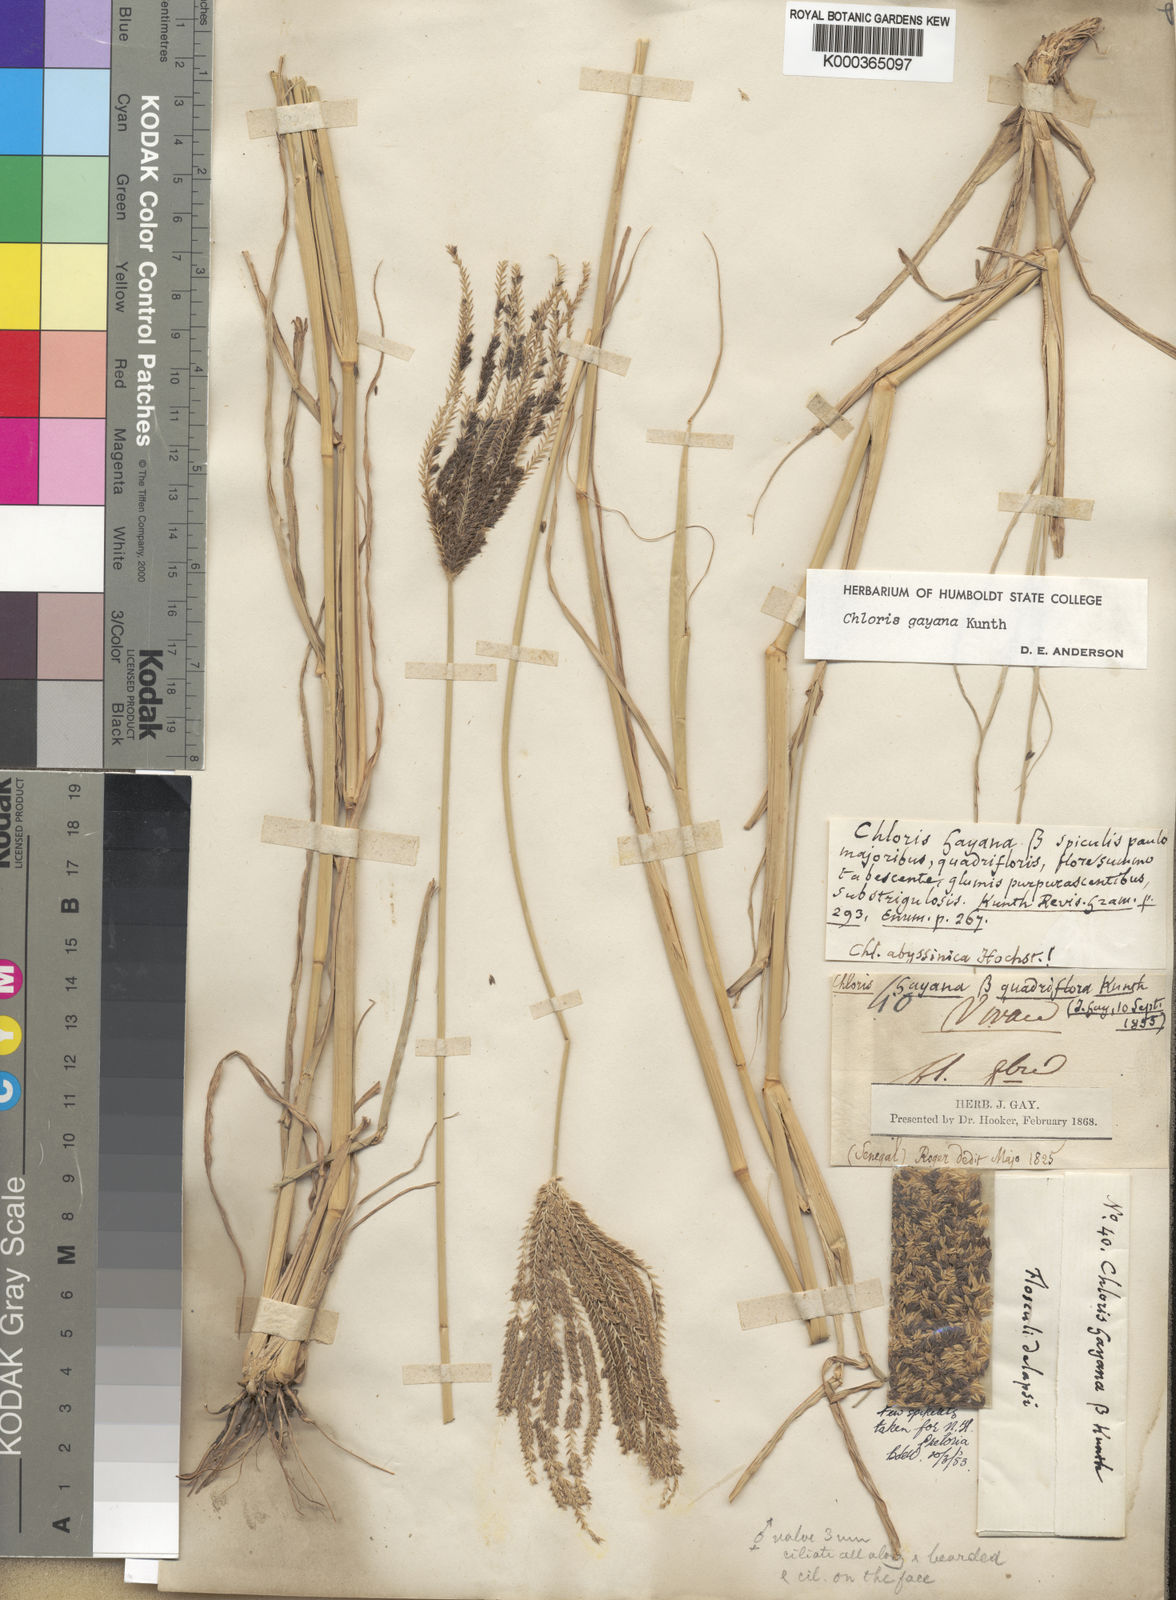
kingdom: Plantae
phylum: Tracheophyta
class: Liliopsida
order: Poales
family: Poaceae
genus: Chloris
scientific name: Chloris gayana
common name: Rhodes grass
